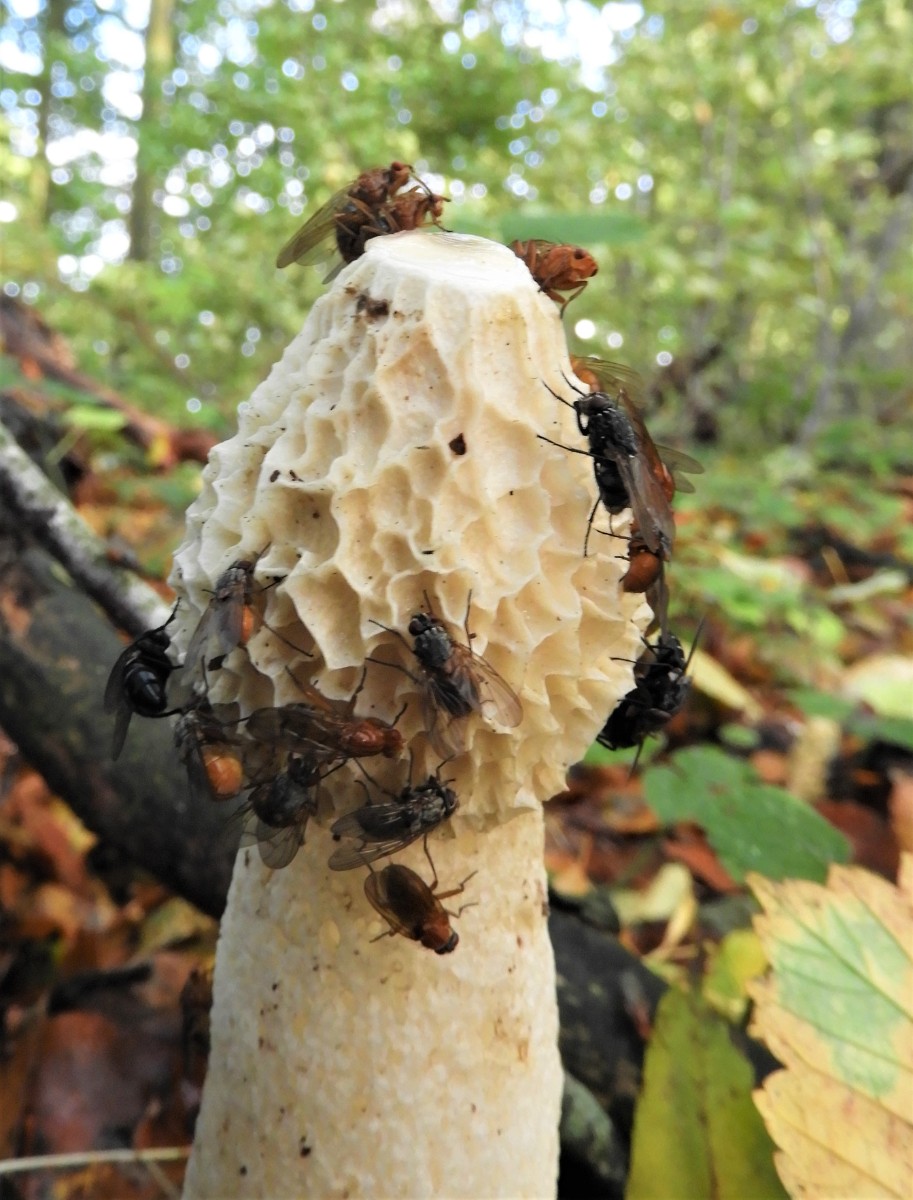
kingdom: Fungi
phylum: Basidiomycota
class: Agaricomycetes
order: Phallales
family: Phallaceae
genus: Phallus
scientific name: Phallus impudicus
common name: almindelig stinksvamp
